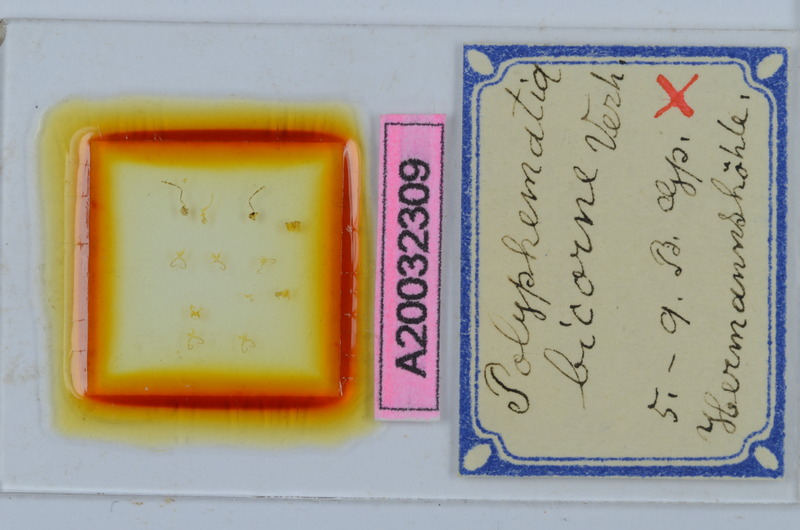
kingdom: Animalia
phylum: Arthropoda
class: Diplopoda
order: Chordeumatida
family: Attemsiidae
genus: Polyphematia
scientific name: Polyphematia moniliformis
